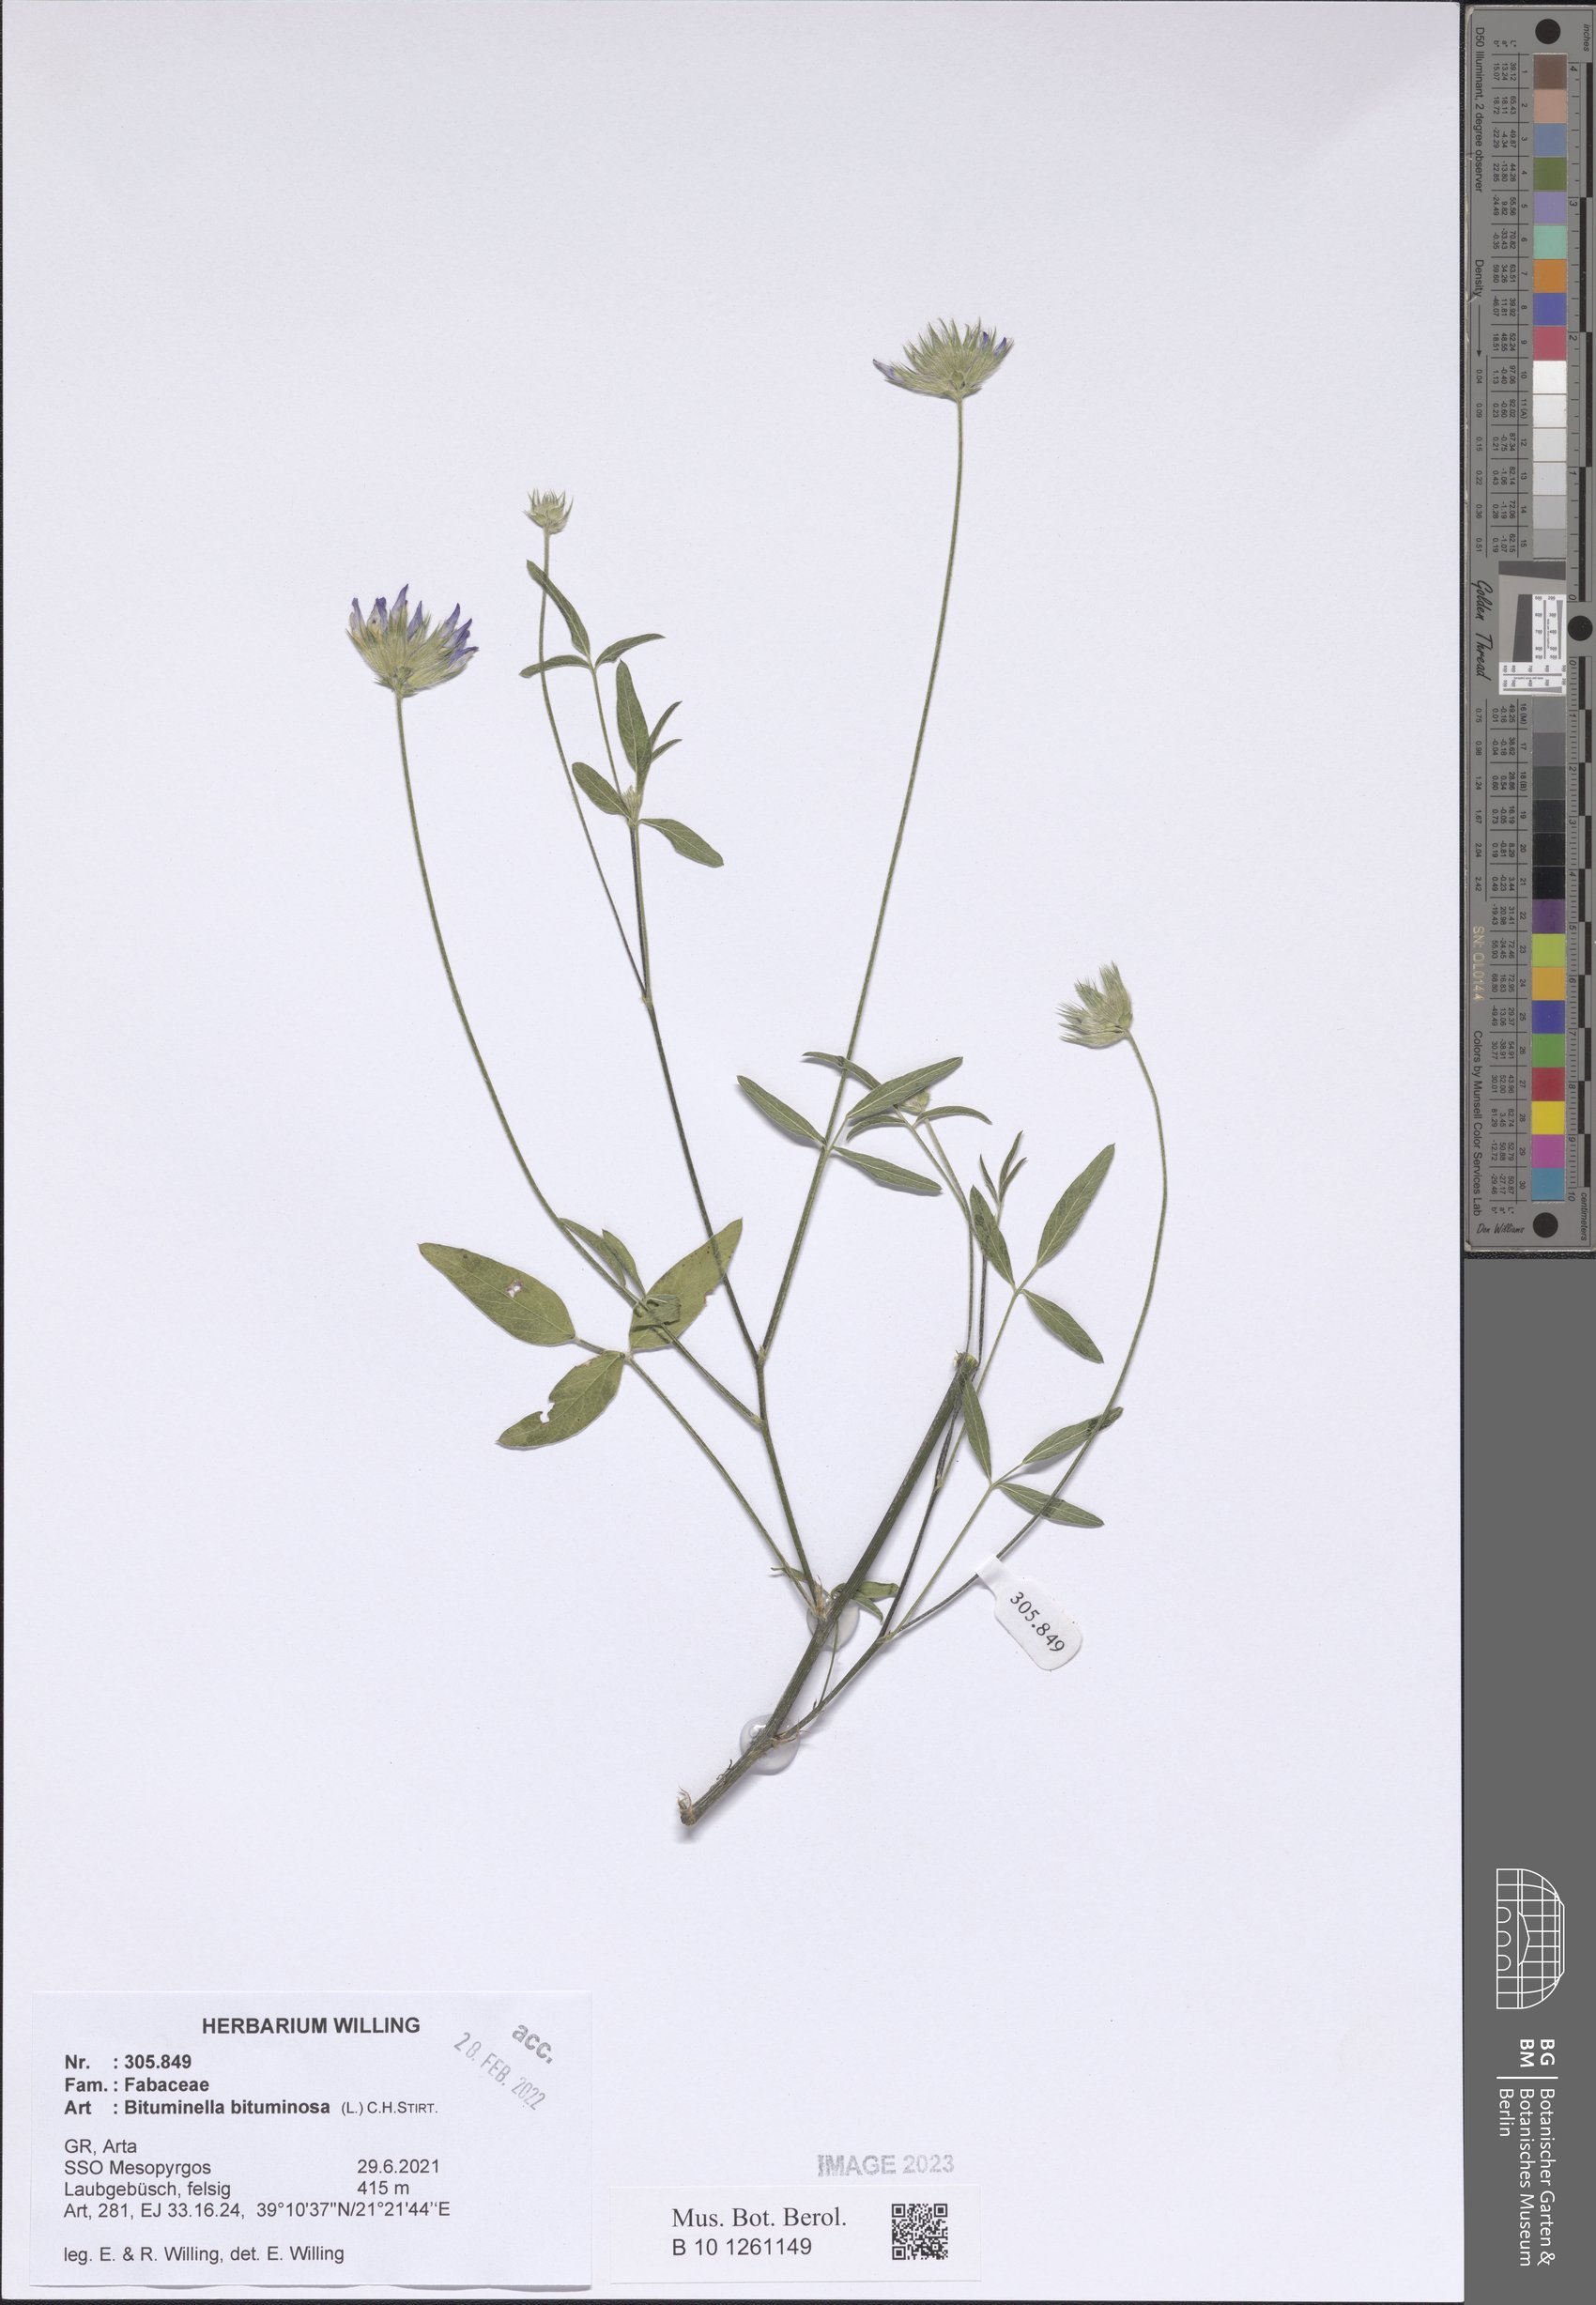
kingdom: Plantae
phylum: Tracheophyta
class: Magnoliopsida
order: Fabales
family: Fabaceae
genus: Bituminaria
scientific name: Bituminaria bituminosa
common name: Arabian pea
